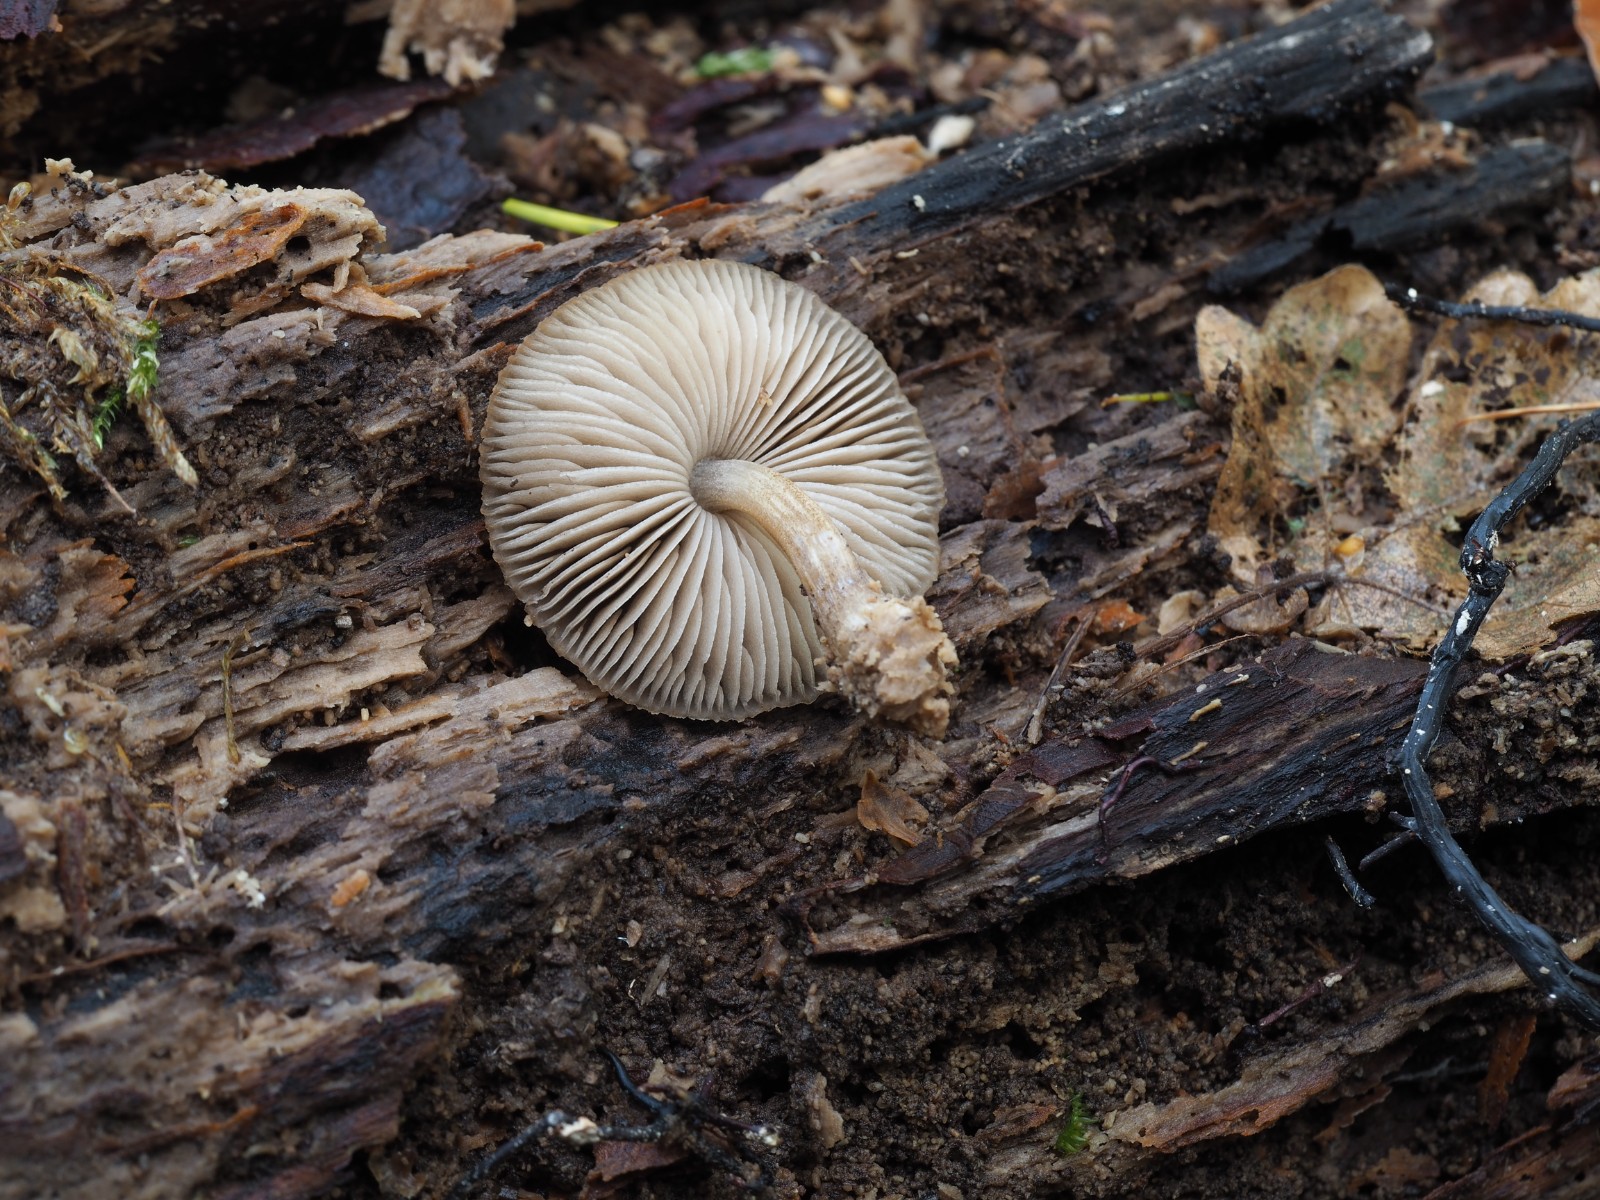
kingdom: Fungi
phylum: Basidiomycota
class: Agaricomycetes
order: Agaricales
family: Pluteaceae
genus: Pluteus
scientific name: Pluteus plautus
